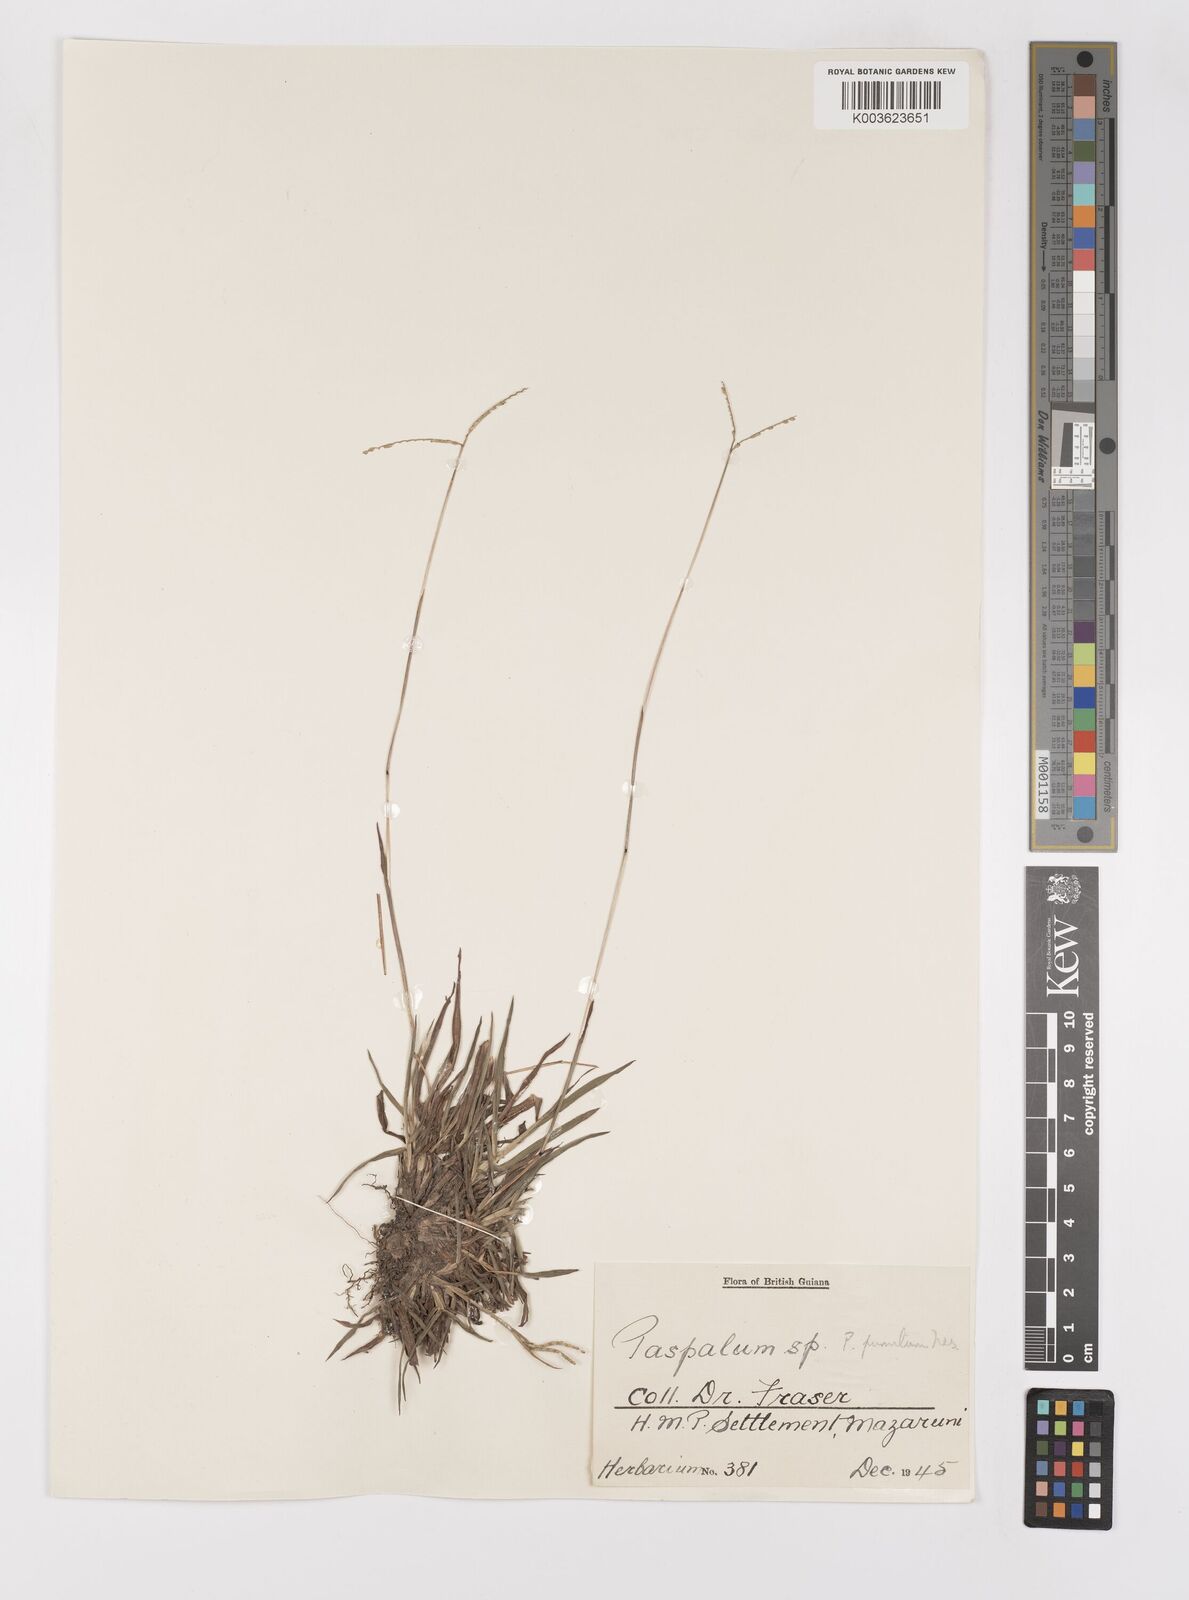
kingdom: Plantae
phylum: Tracheophyta
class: Liliopsida
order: Poales
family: Poaceae
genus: Paspalum
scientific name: Paspalum pumilum
